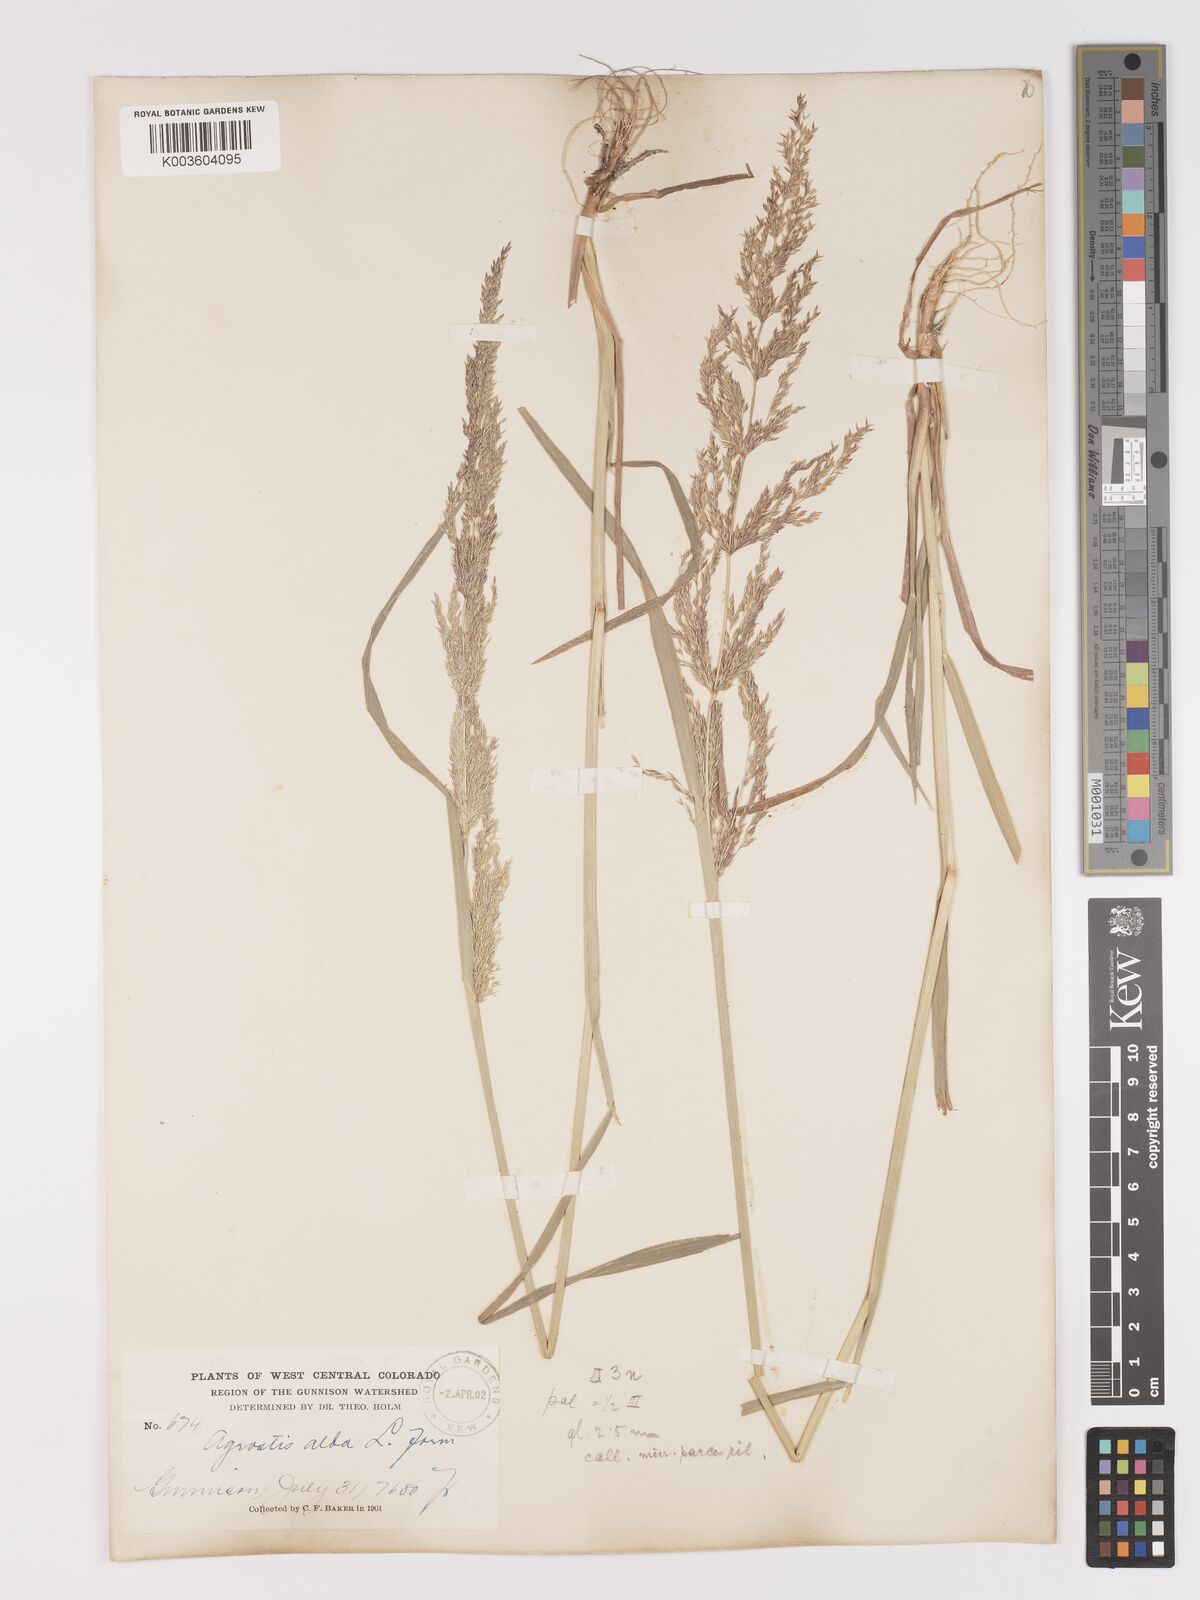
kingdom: Plantae
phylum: Tracheophyta
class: Liliopsida
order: Poales
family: Poaceae
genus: Agrostis
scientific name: Agrostis gigantea
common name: Black bent
